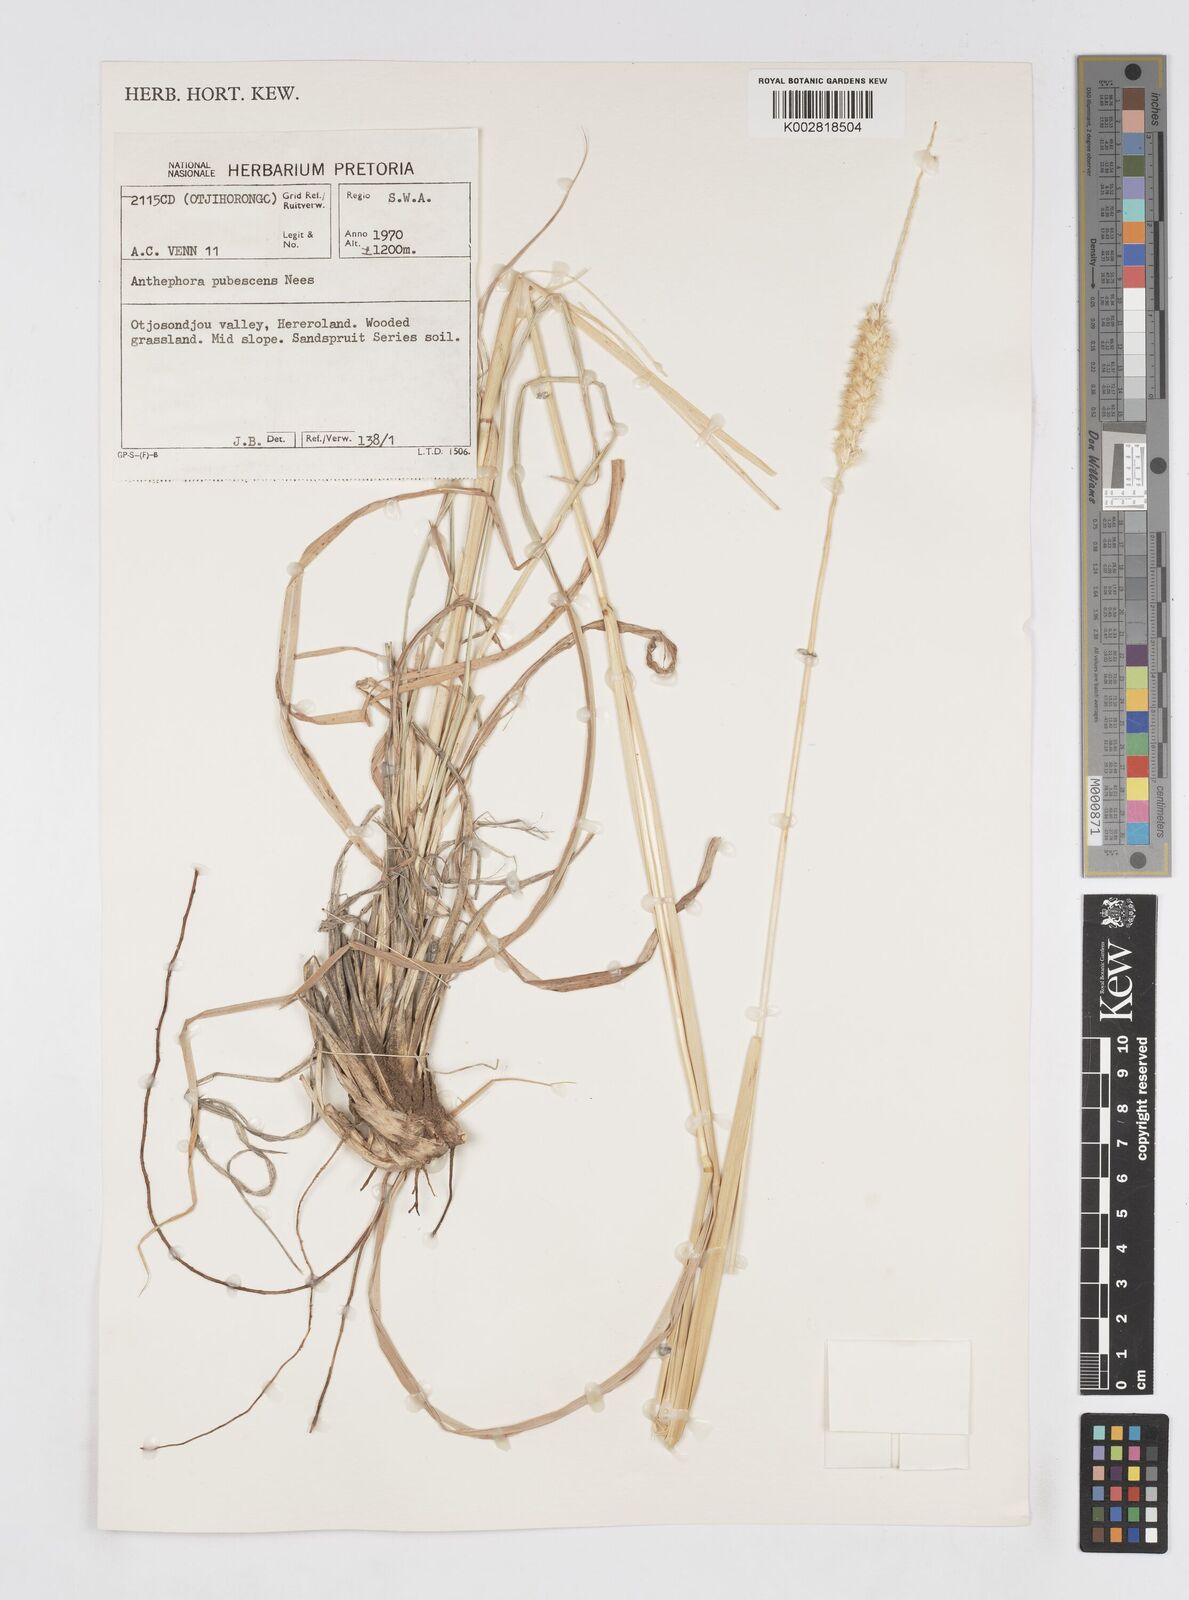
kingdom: Plantae
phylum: Tracheophyta
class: Liliopsida
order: Poales
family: Poaceae
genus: Anthephora
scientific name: Anthephora pubescens
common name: Wool grass
